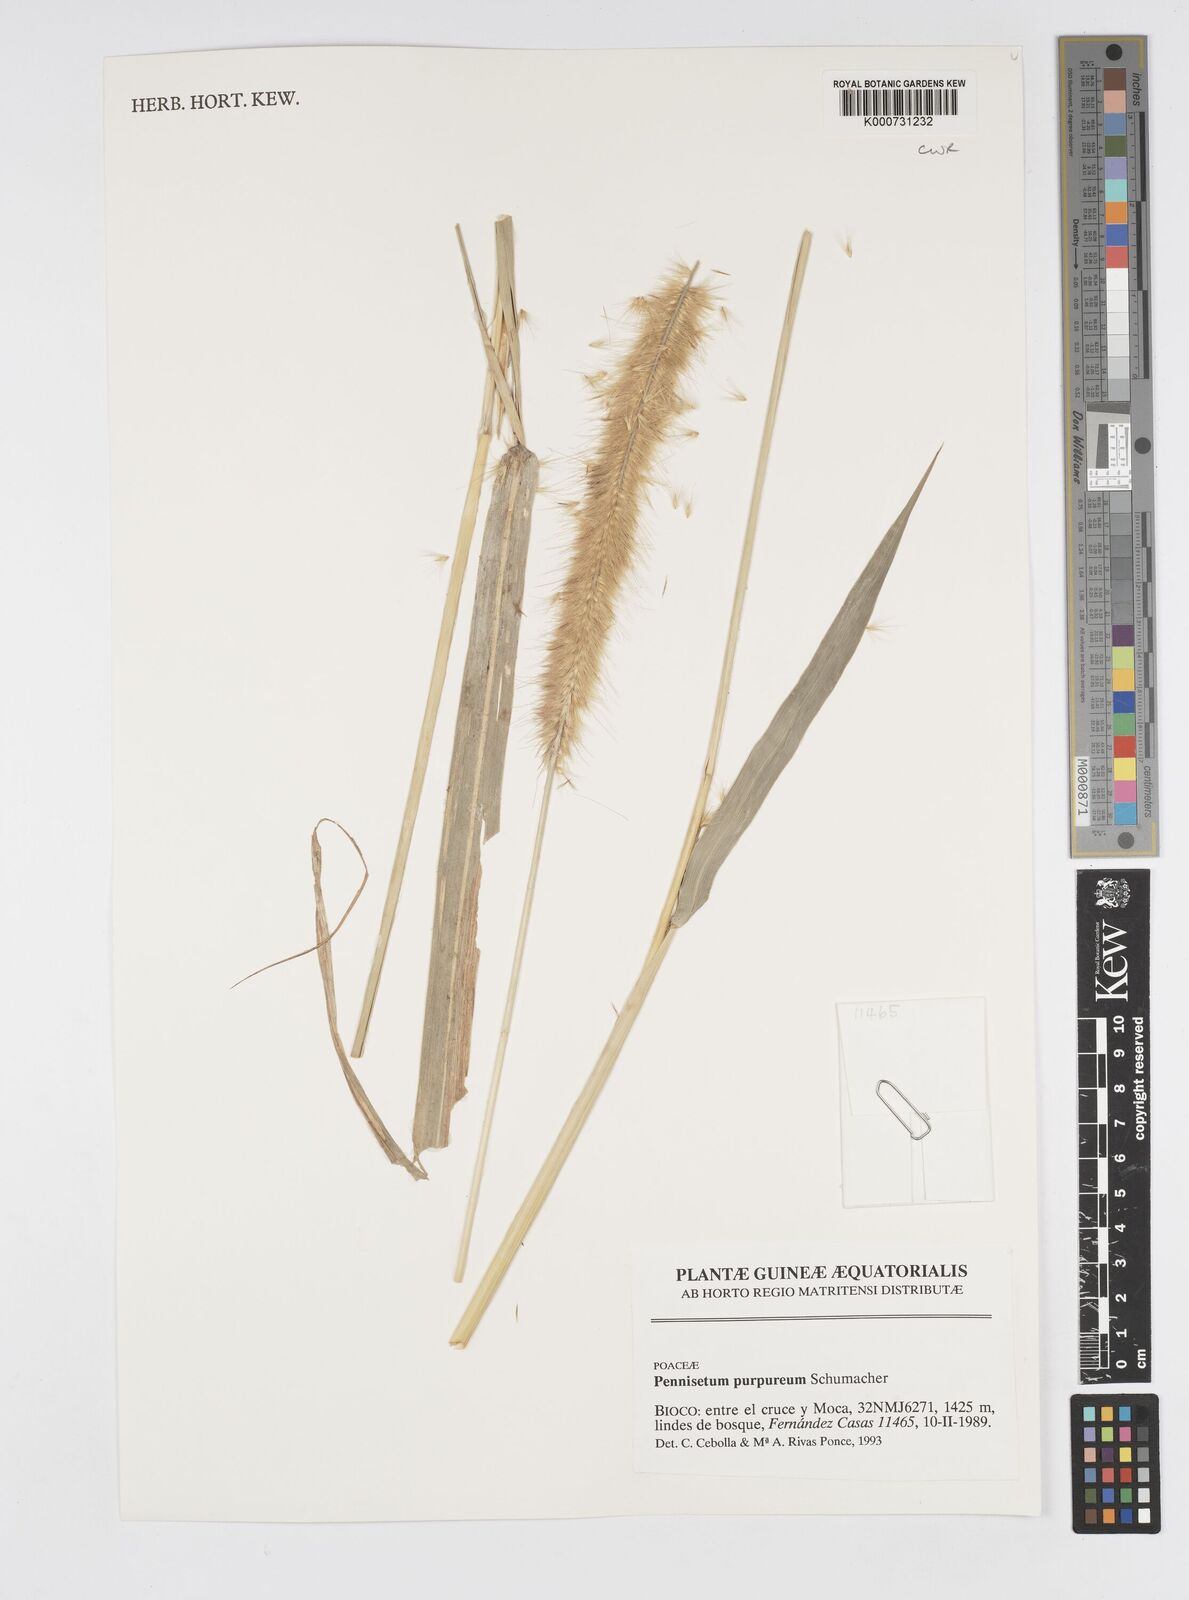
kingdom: Plantae
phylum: Tracheophyta
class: Liliopsida
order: Poales
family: Poaceae
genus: Cenchrus
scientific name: Cenchrus purpureus
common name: Elephant grass
